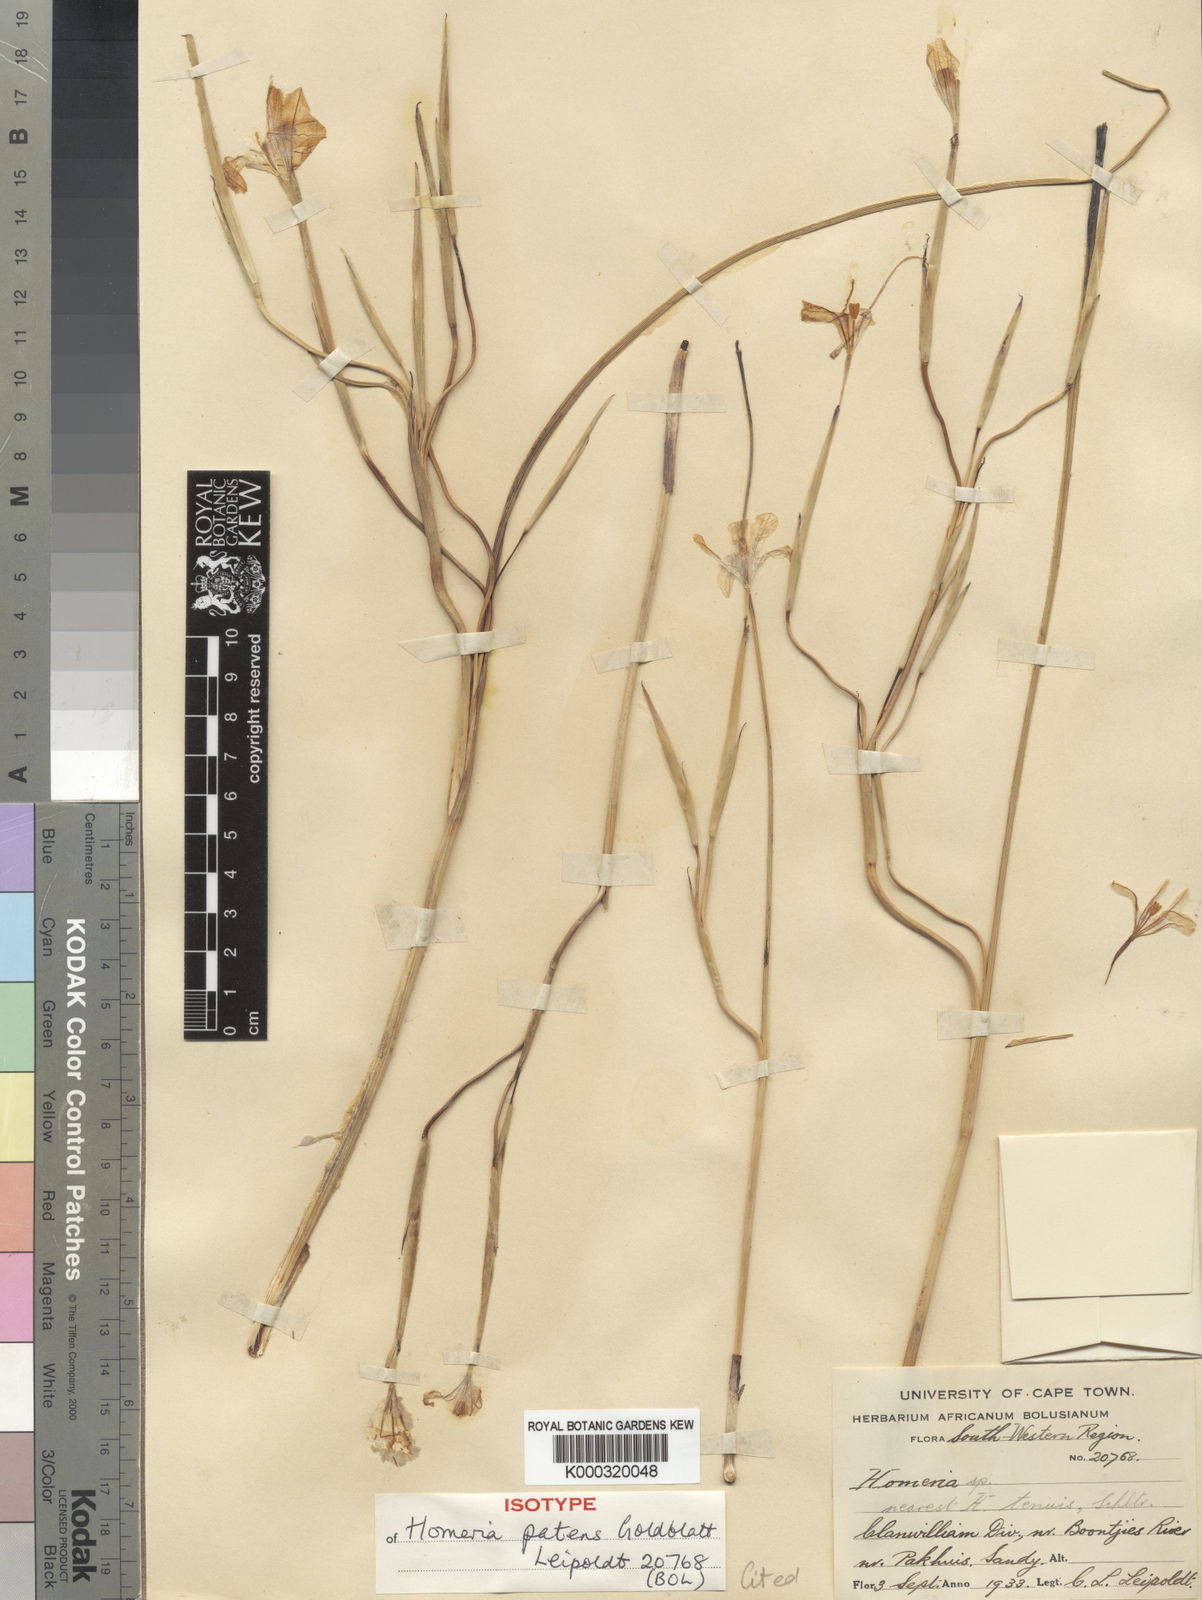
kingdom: Plantae
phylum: Tracheophyta
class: Liliopsida
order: Asparagales
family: Iridaceae
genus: Moraea
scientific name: Moraea patens
